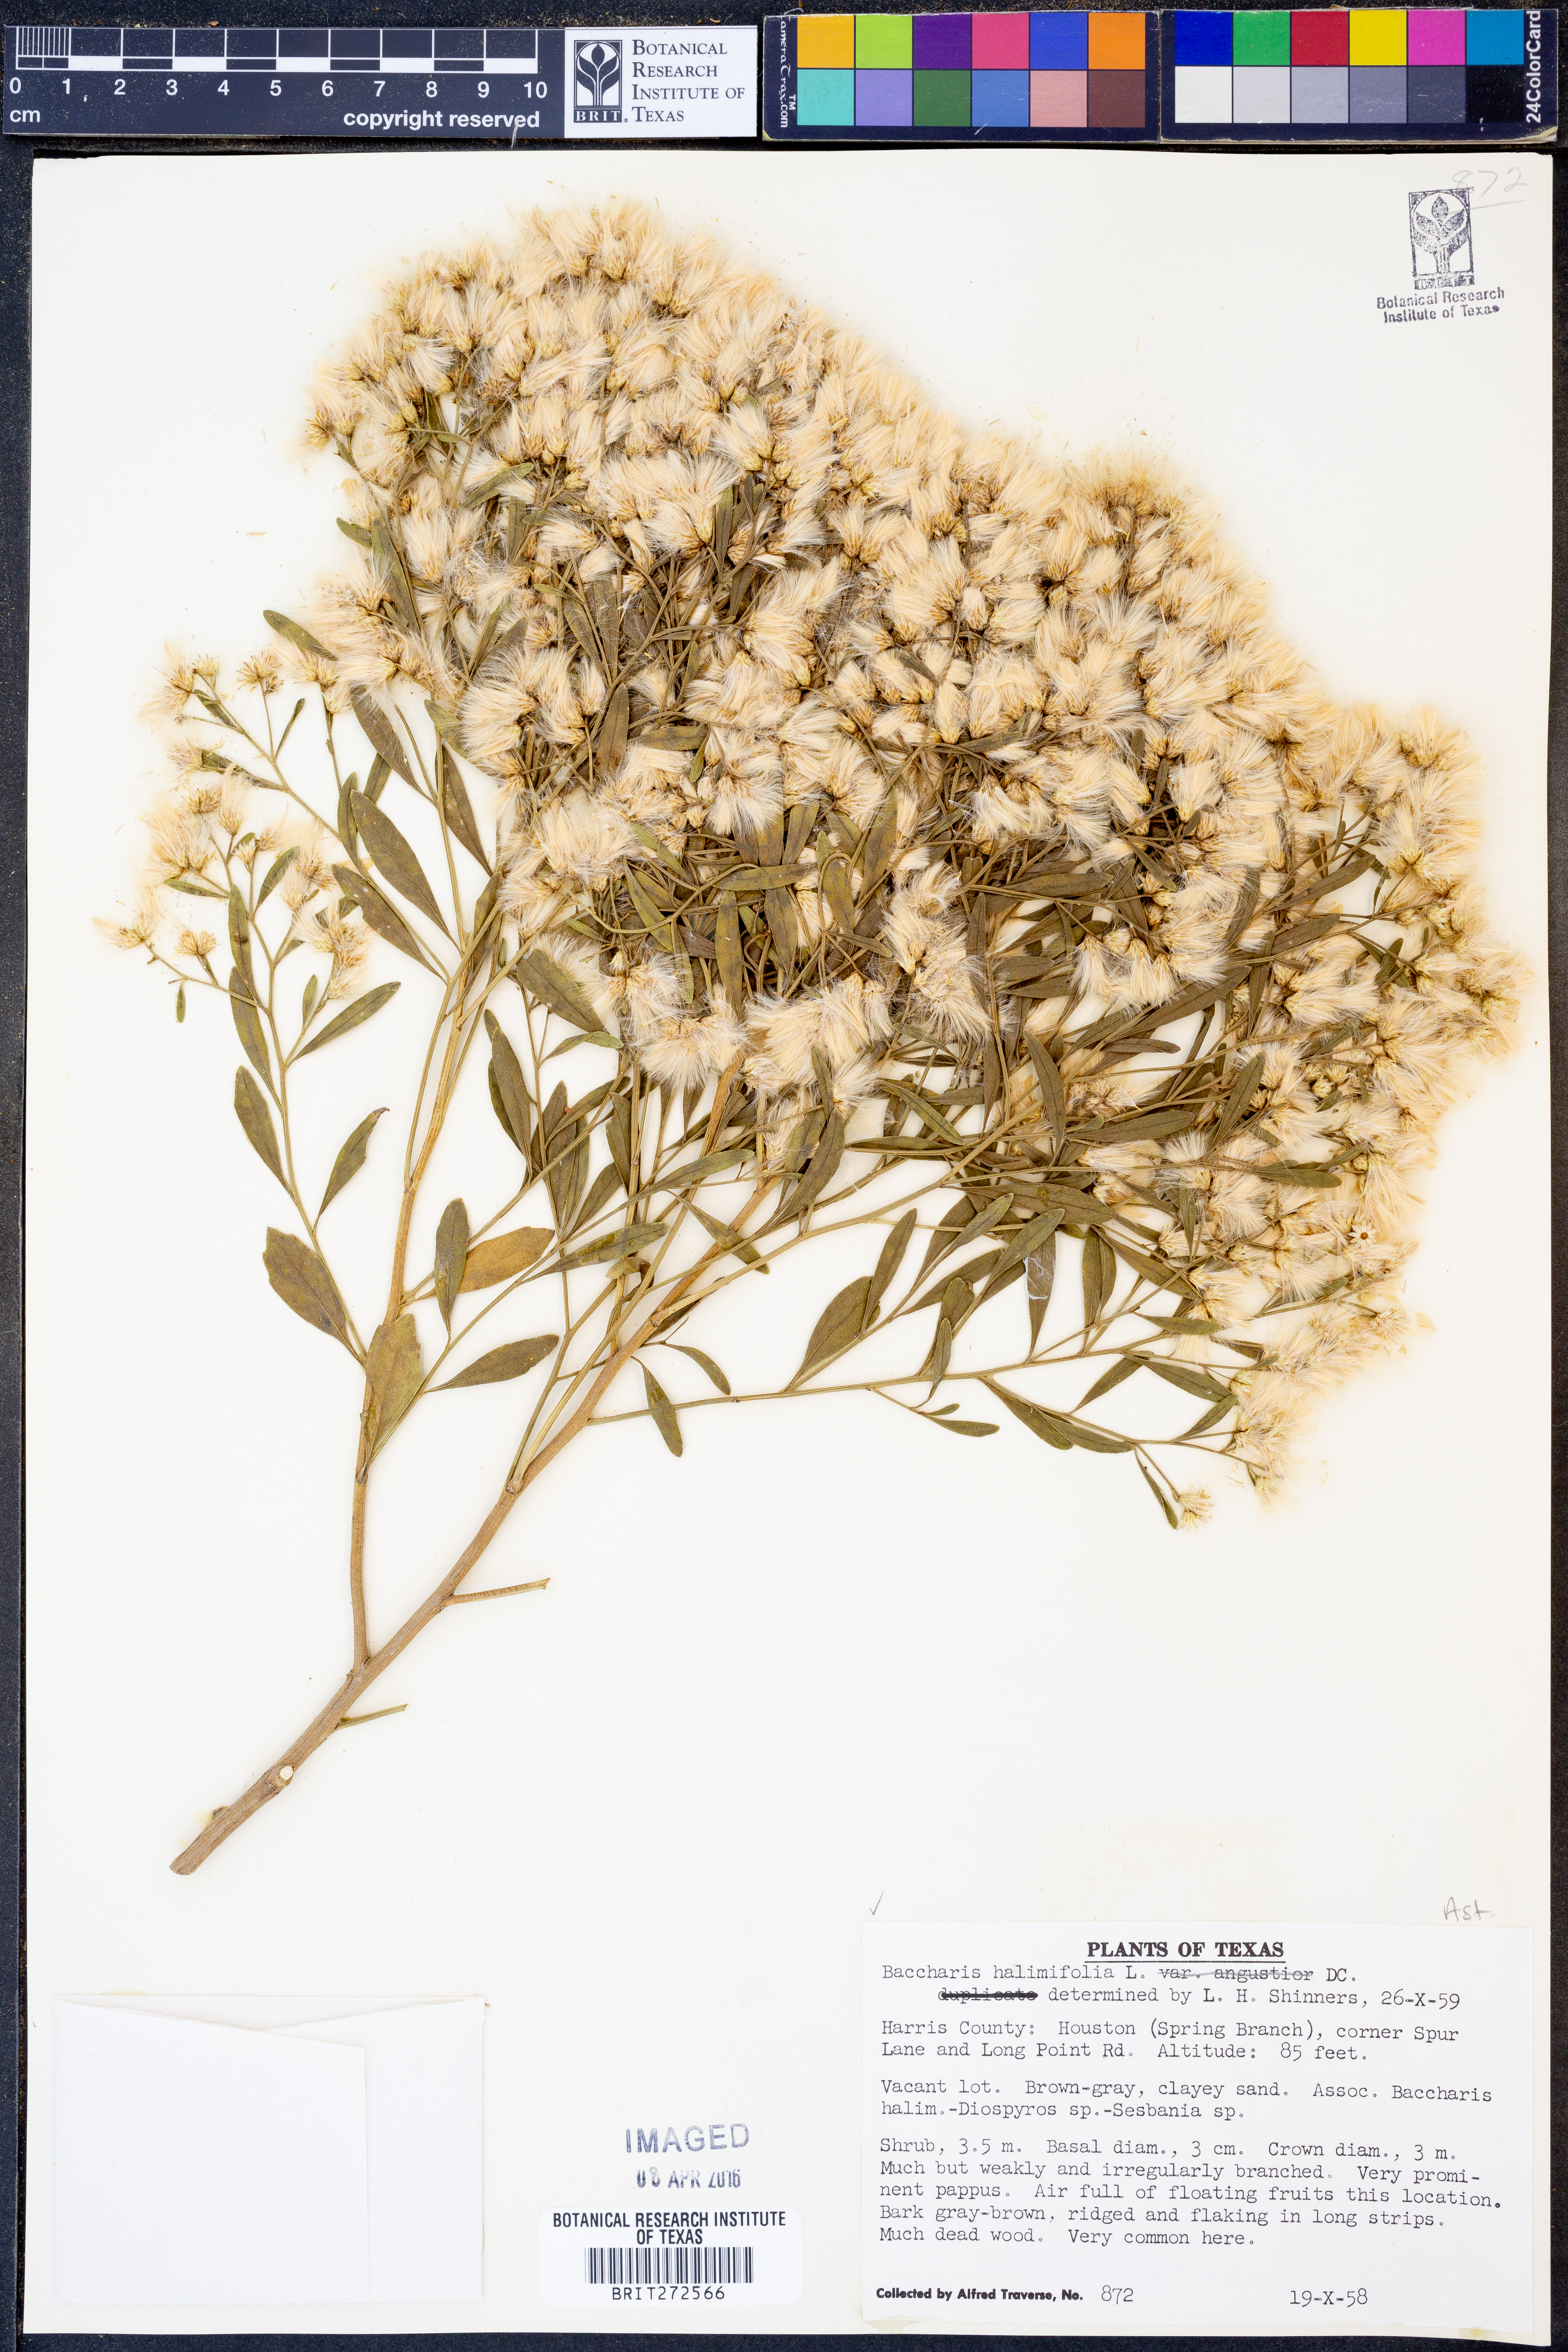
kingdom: Plantae
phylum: Tracheophyta
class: Magnoliopsida
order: Asterales
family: Asteraceae
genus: Nidorella
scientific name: Nidorella ivifolia
